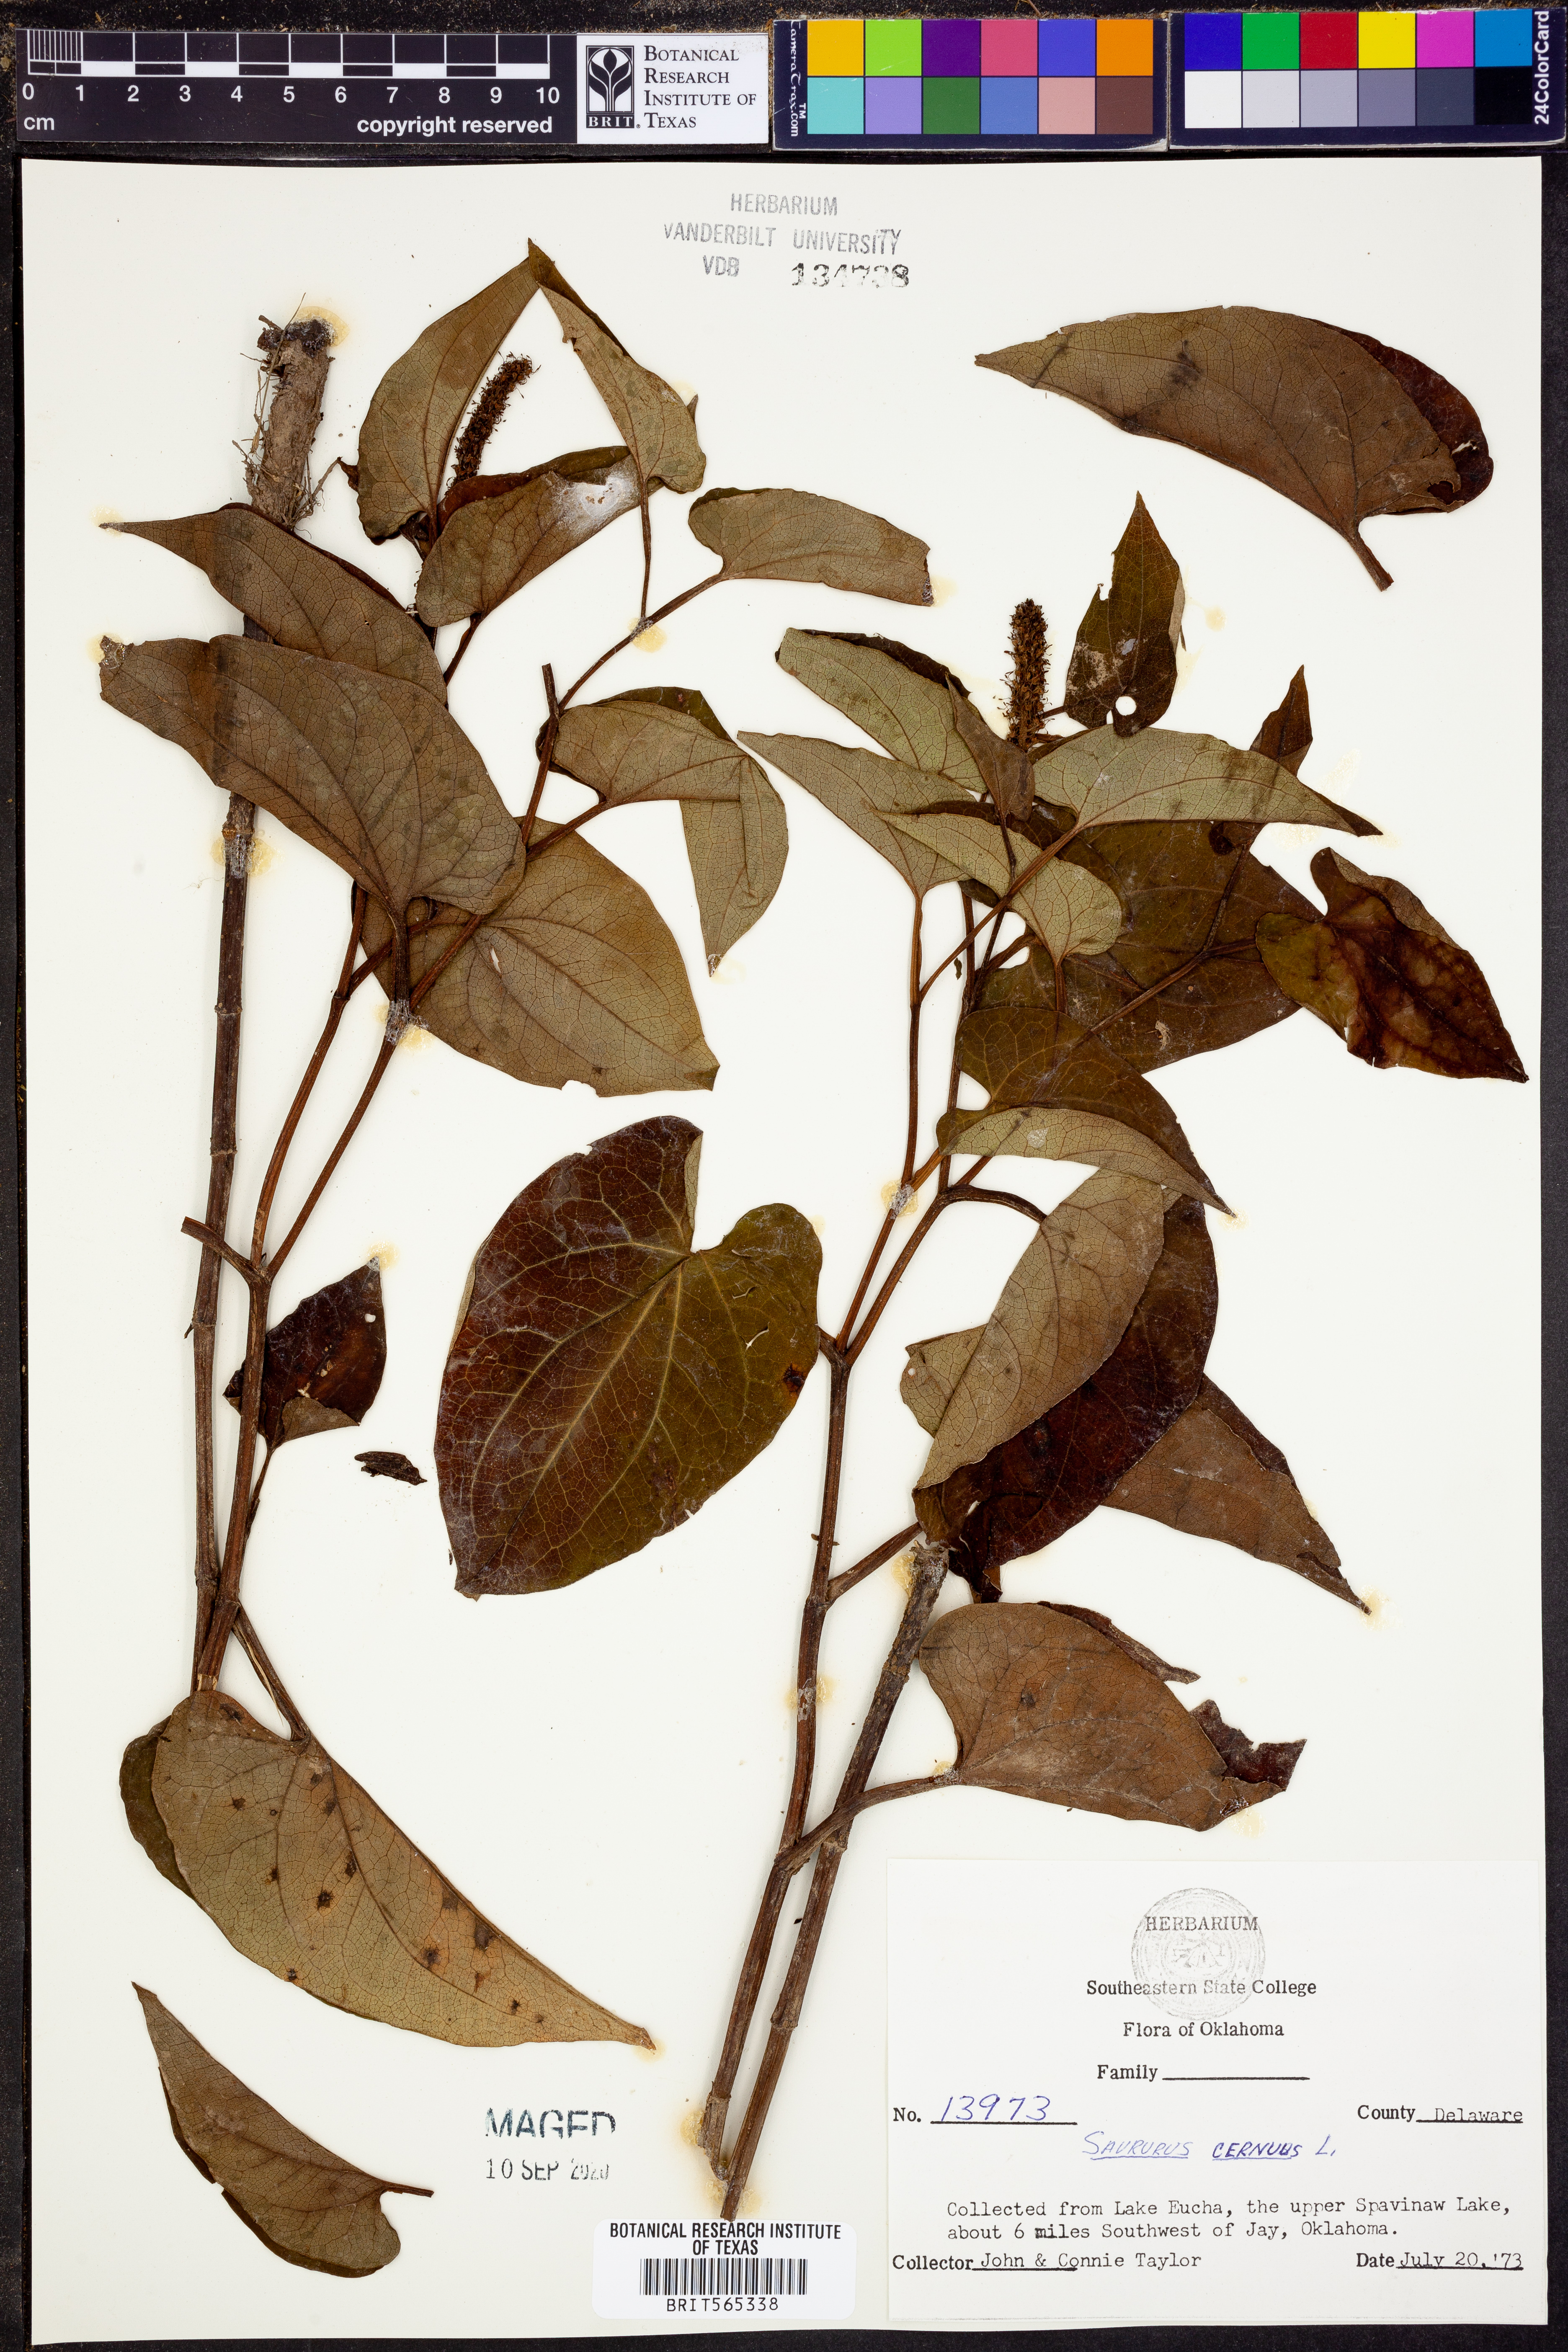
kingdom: Plantae
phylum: Tracheophyta
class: Magnoliopsida
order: Piperales
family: Saururaceae
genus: Saururus
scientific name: Saururus cernuus
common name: Lizard's-tail
